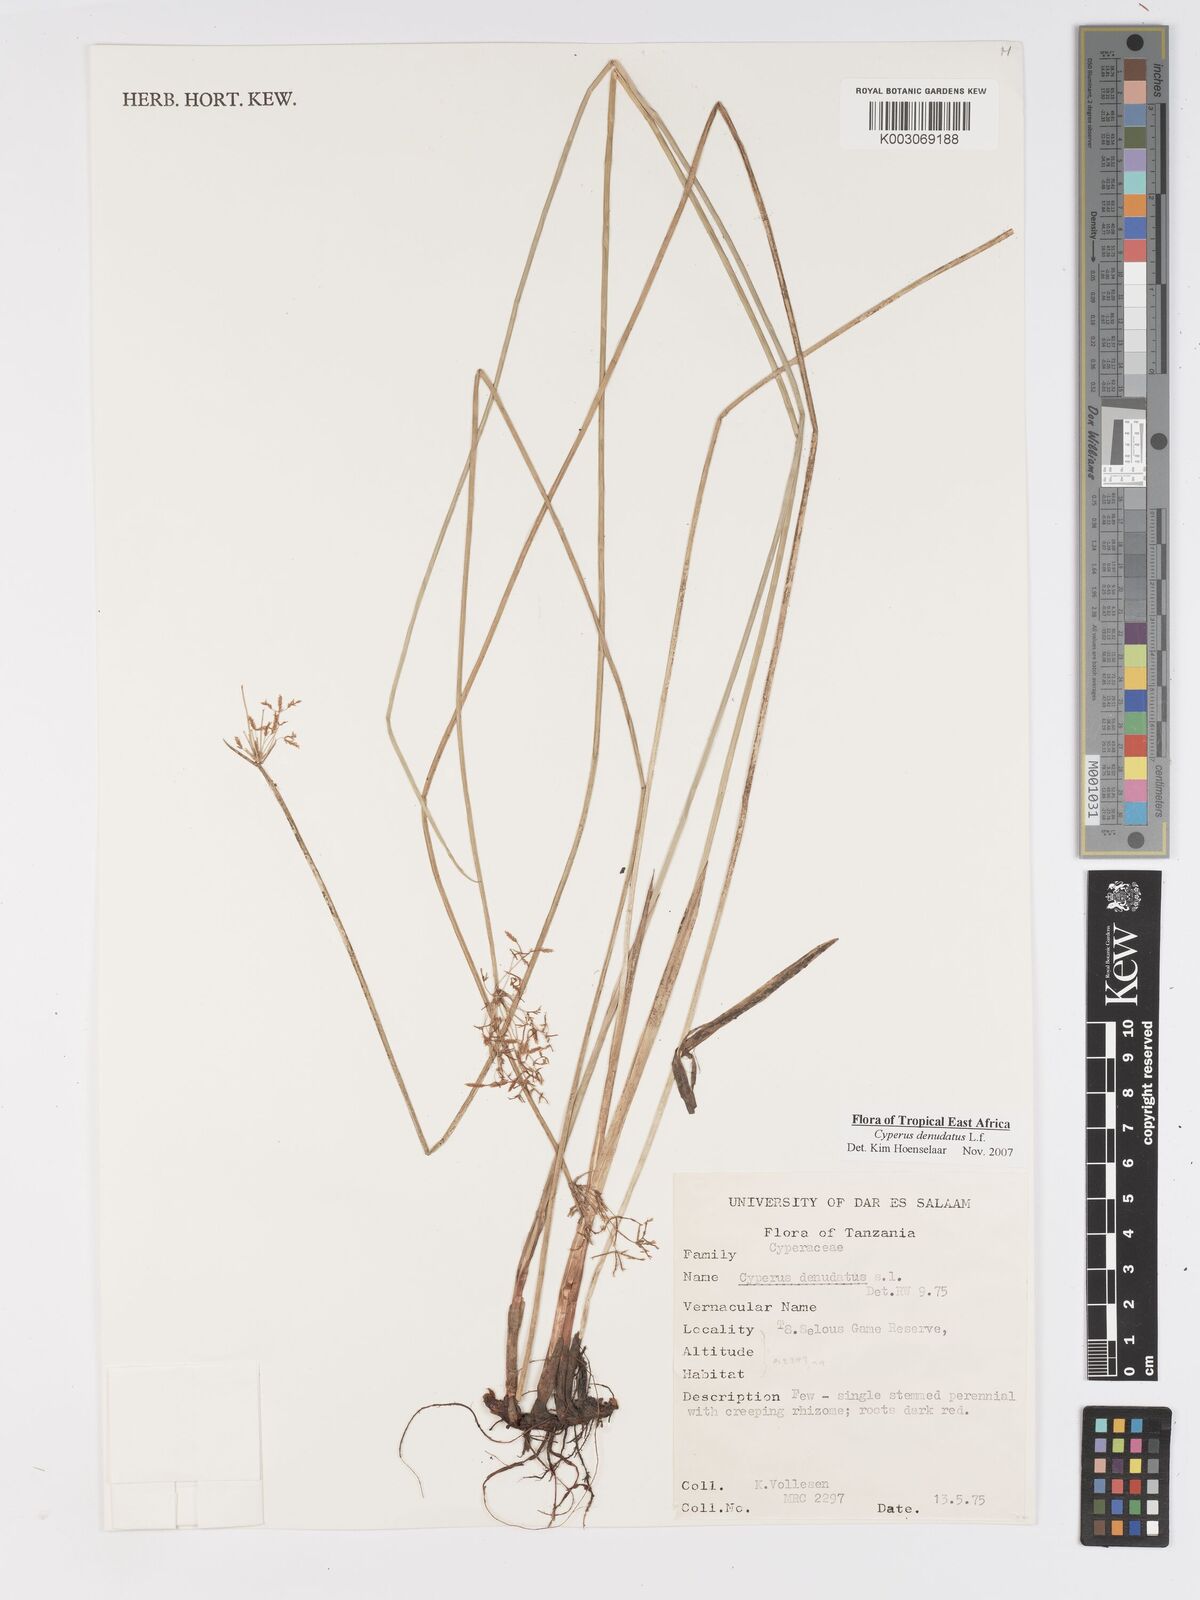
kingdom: Plantae
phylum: Tracheophyta
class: Liliopsida
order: Poales
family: Cyperaceae
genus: Cyperus
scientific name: Cyperus denudatus
